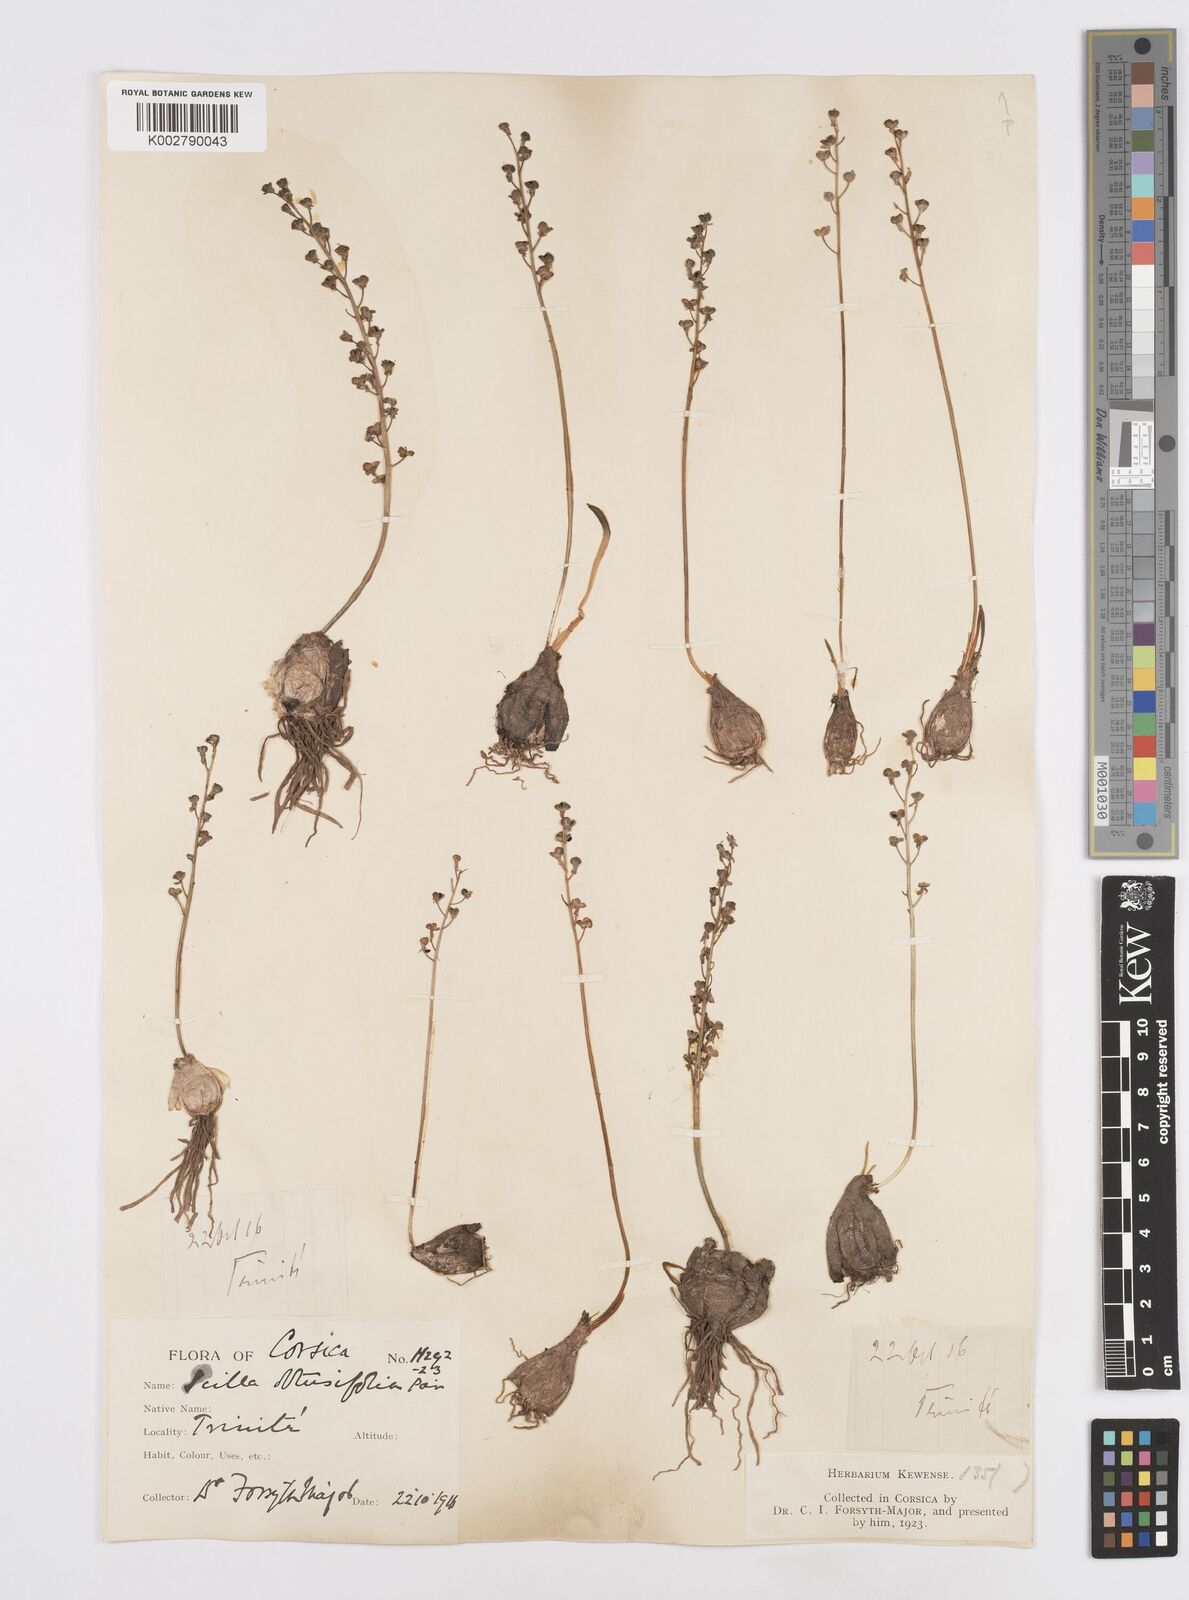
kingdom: Plantae
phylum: Tracheophyta
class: Liliopsida
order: Asparagales
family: Asparagaceae
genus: Prospero
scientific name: Prospero obtusifolium
